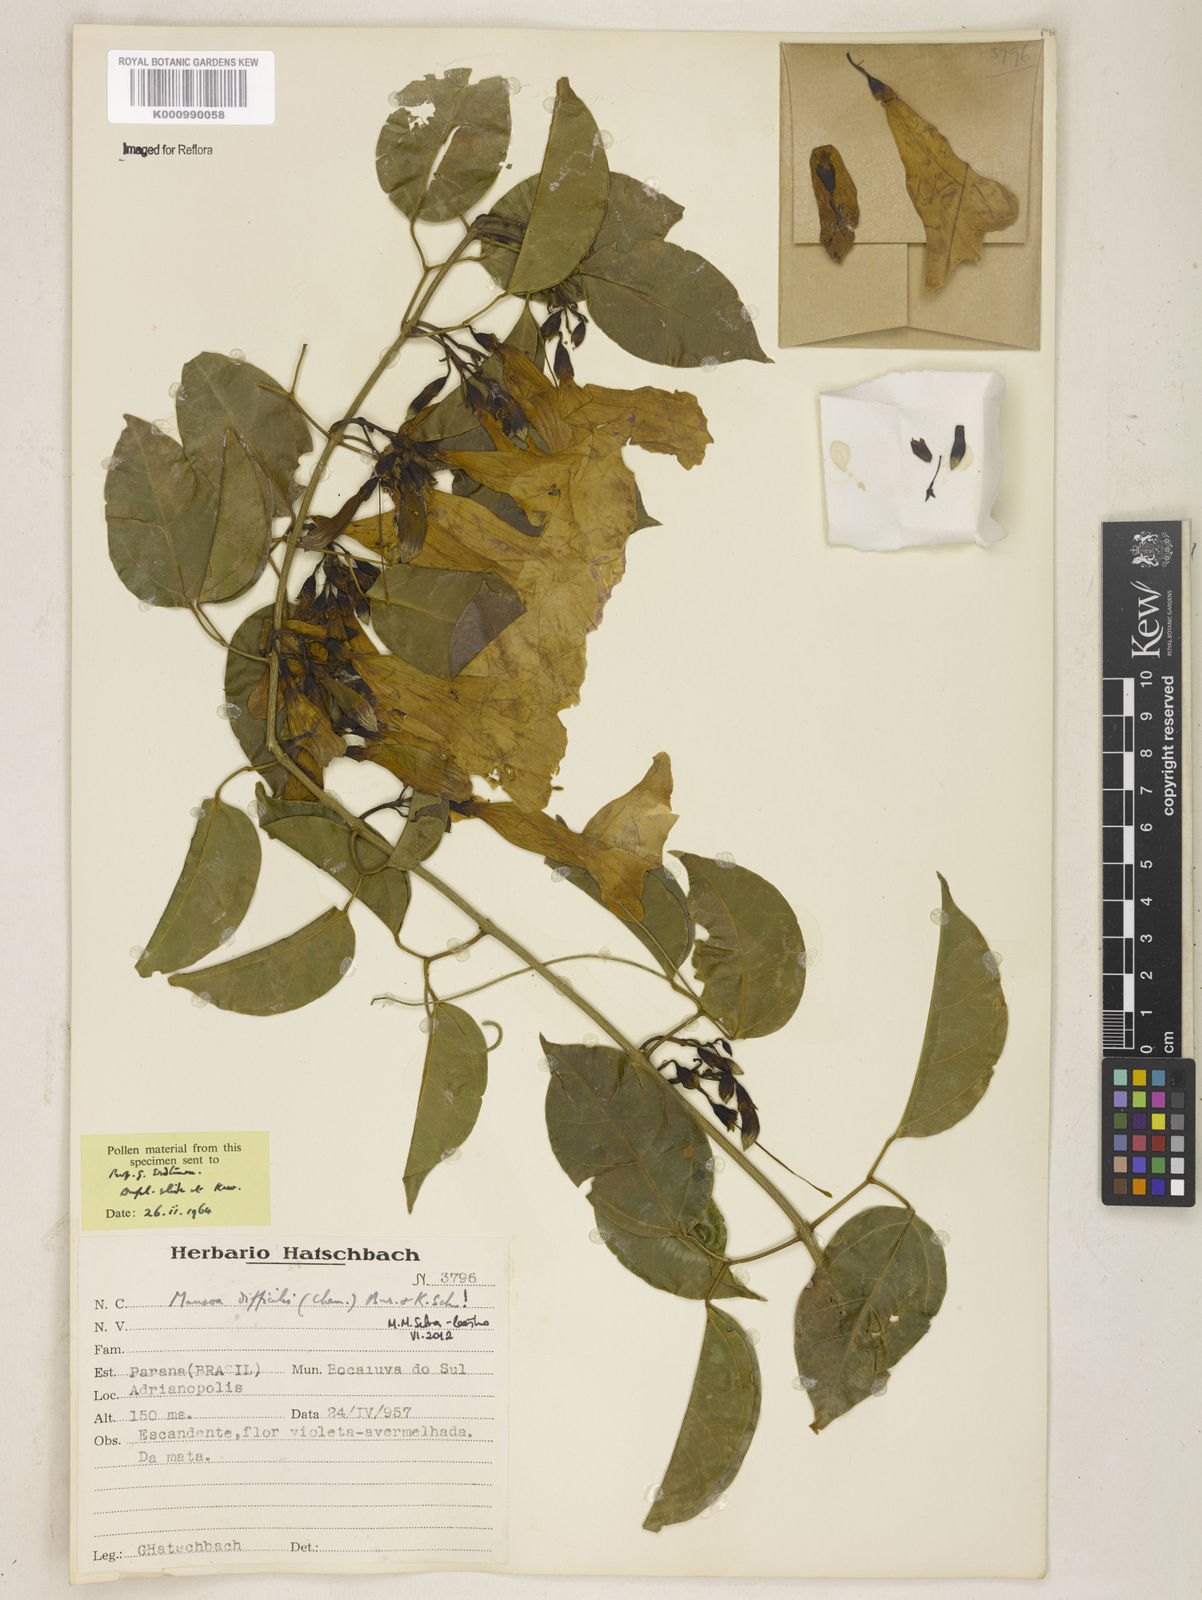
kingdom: Plantae
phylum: Tracheophyta
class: Magnoliopsida
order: Lamiales
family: Bignoniaceae
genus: Mansoa
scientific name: Mansoa difficilis
